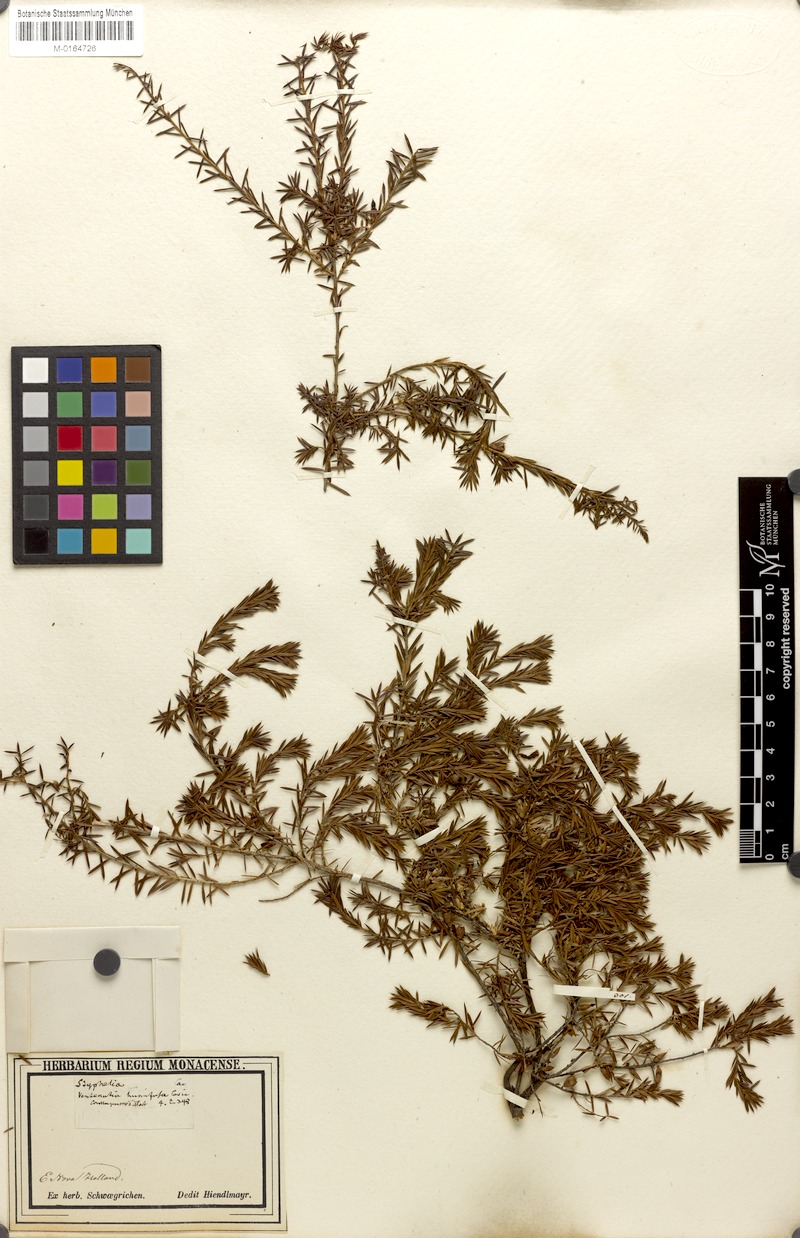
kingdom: Plantae
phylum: Tracheophyta
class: Magnoliopsida
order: Ericales
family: Ericaceae
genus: Styphelia
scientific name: Styphelia humifusa
